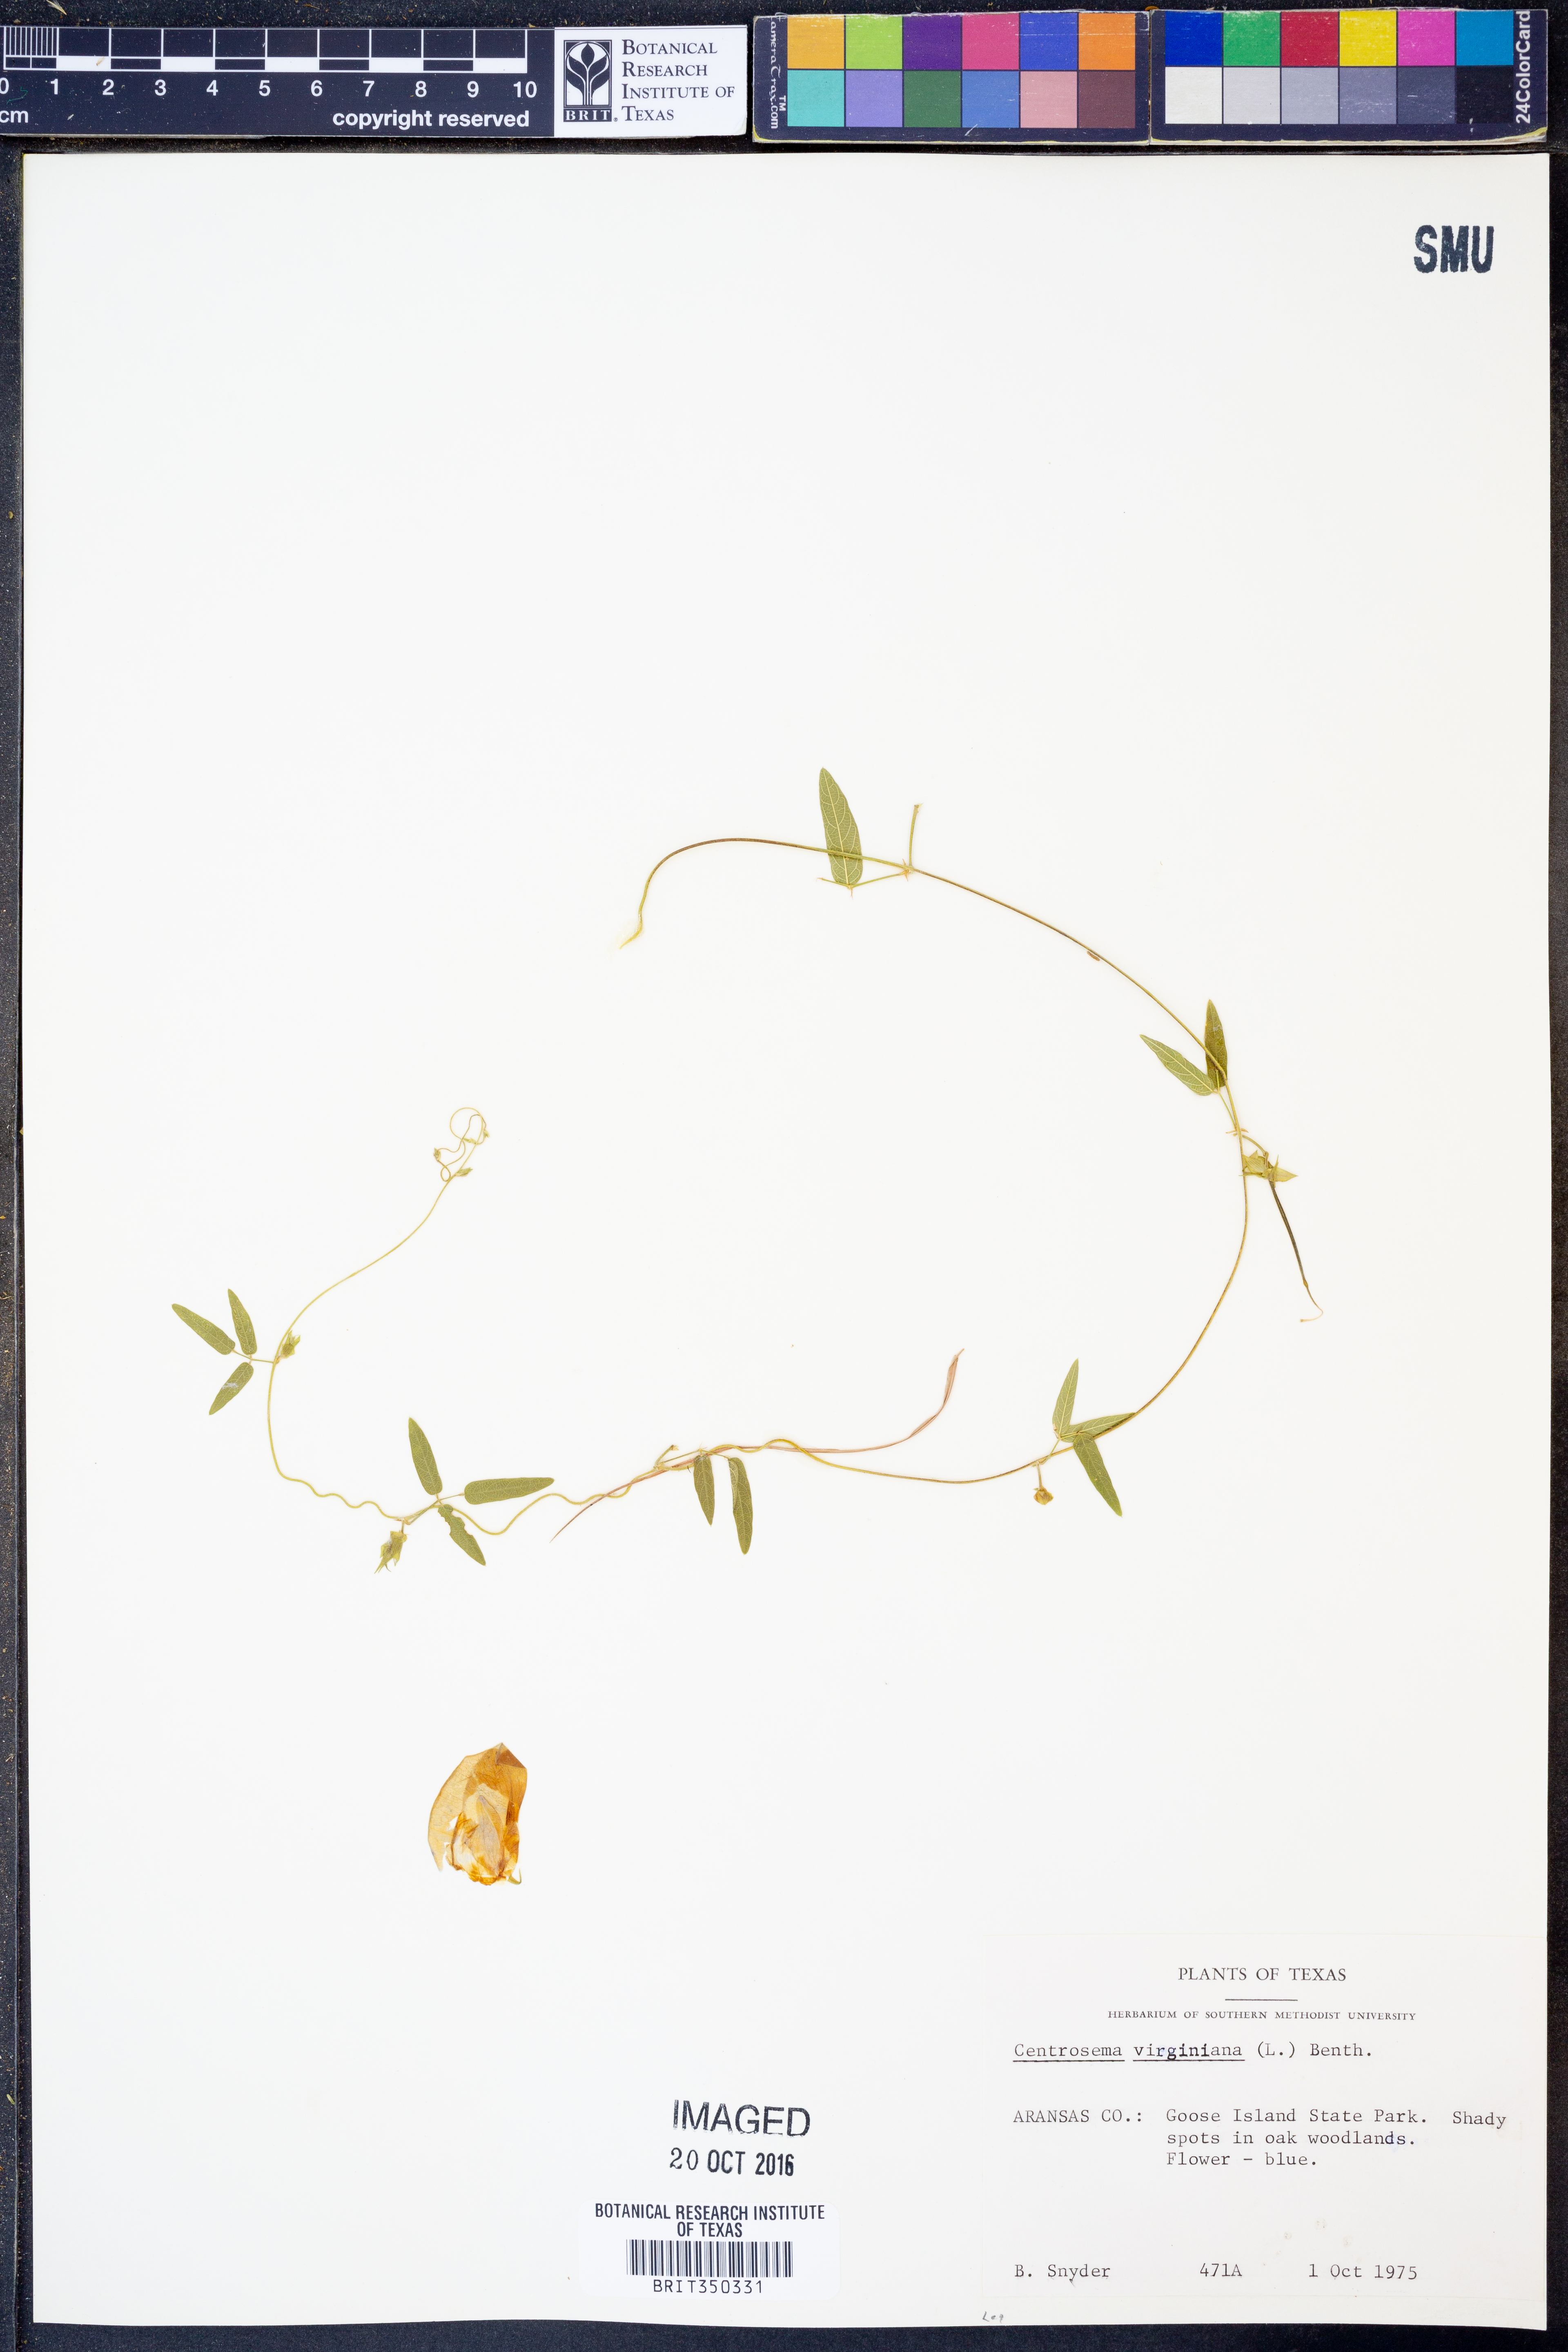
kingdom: Plantae
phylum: Tracheophyta
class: Magnoliopsida
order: Fabales
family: Fabaceae
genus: Centrosema
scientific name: Centrosema virginianum
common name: Butterfly-pea
